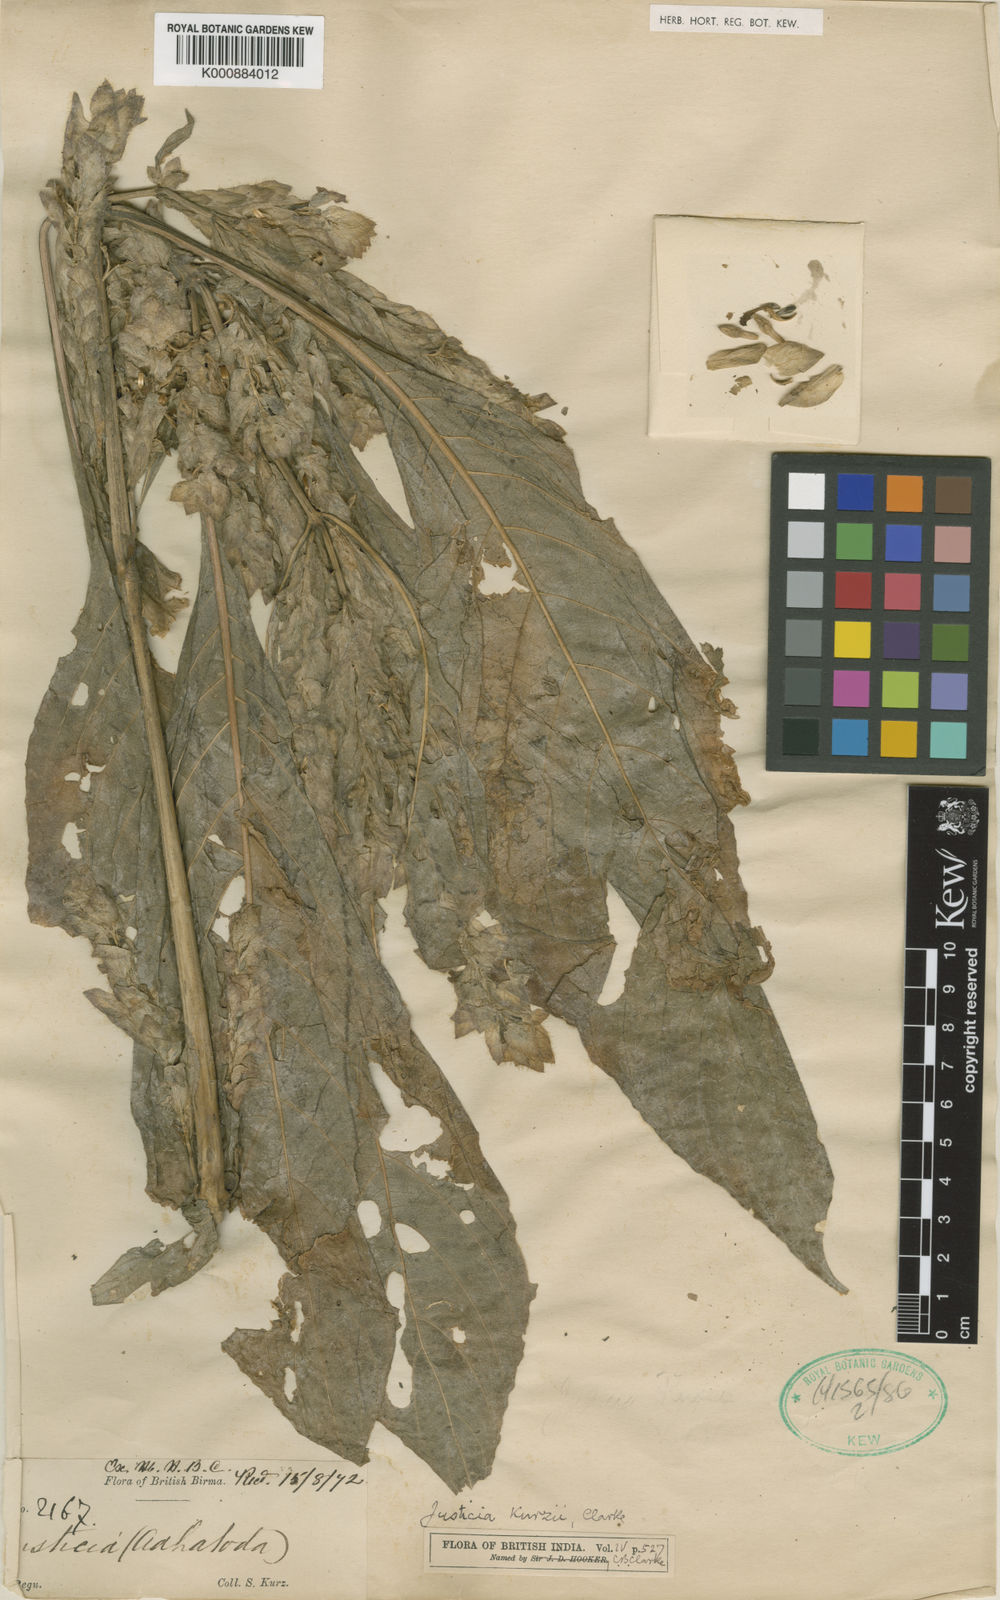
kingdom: Plantae
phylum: Tracheophyta
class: Magnoliopsida
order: Lamiales
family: Acanthaceae
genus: Justicia
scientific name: Justicia kurzii
